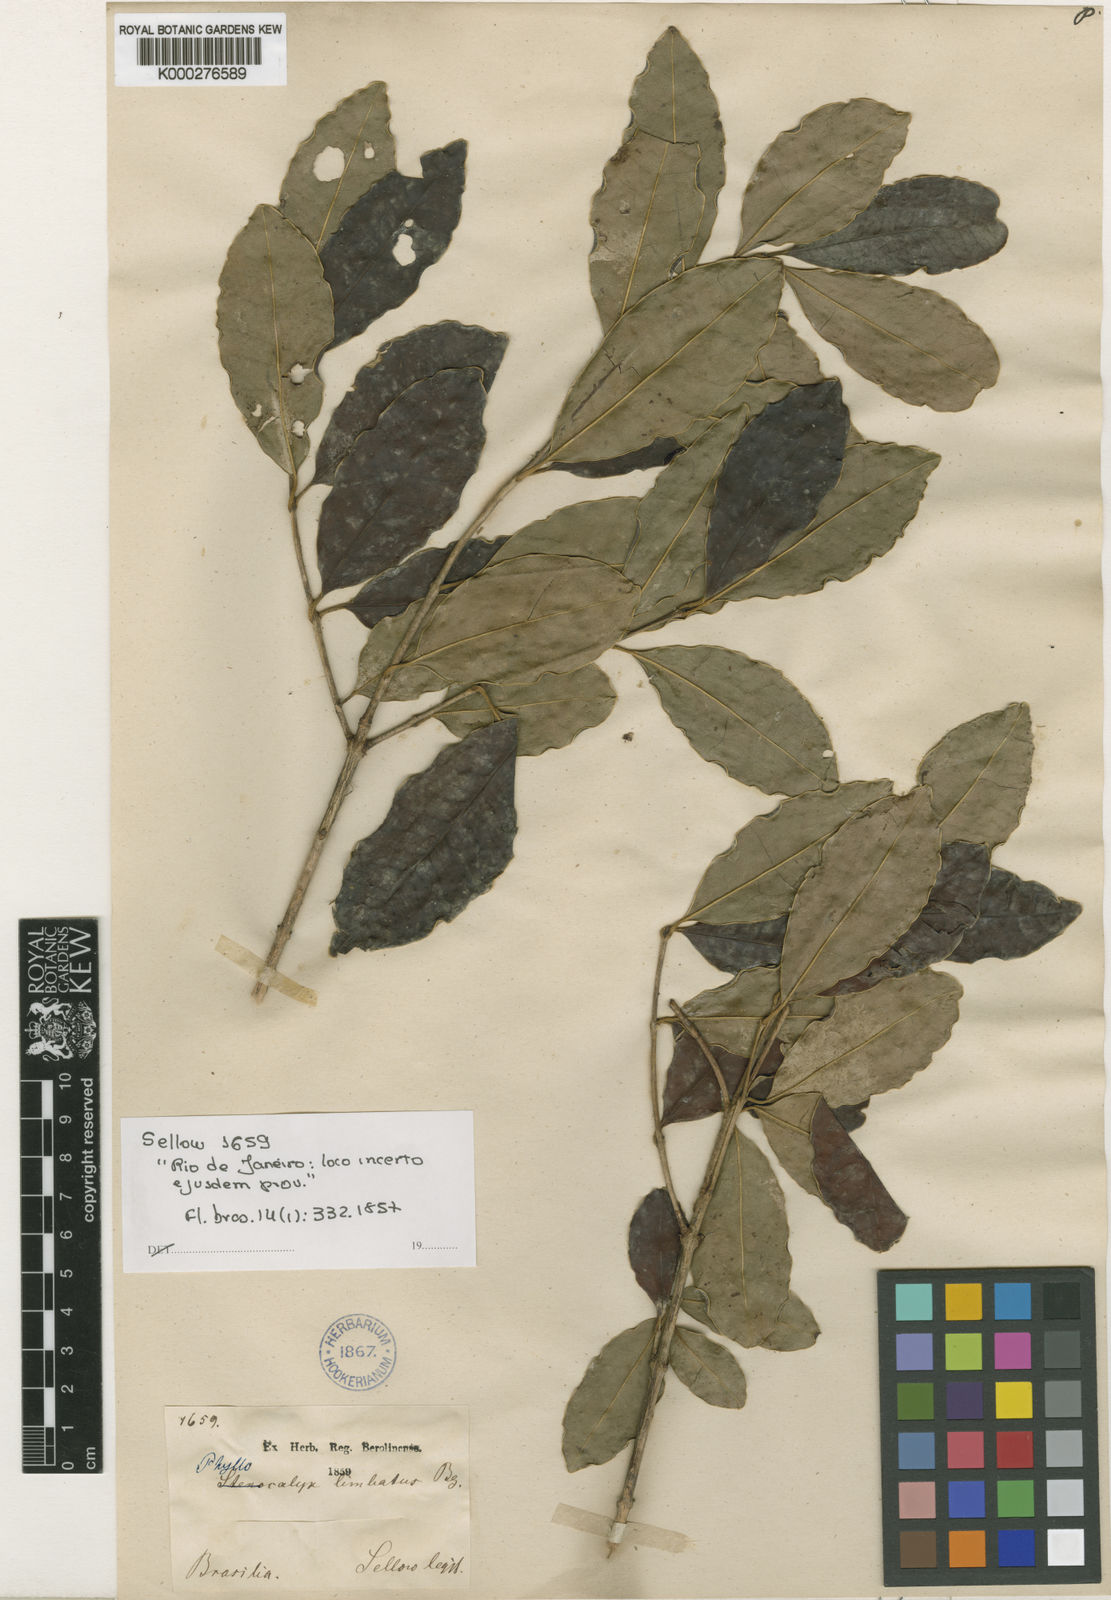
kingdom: Plantae
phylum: Tracheophyta
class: Magnoliopsida
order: Myrtales
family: Myrtaceae
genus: Eugenia
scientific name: Eugenia speciosa
